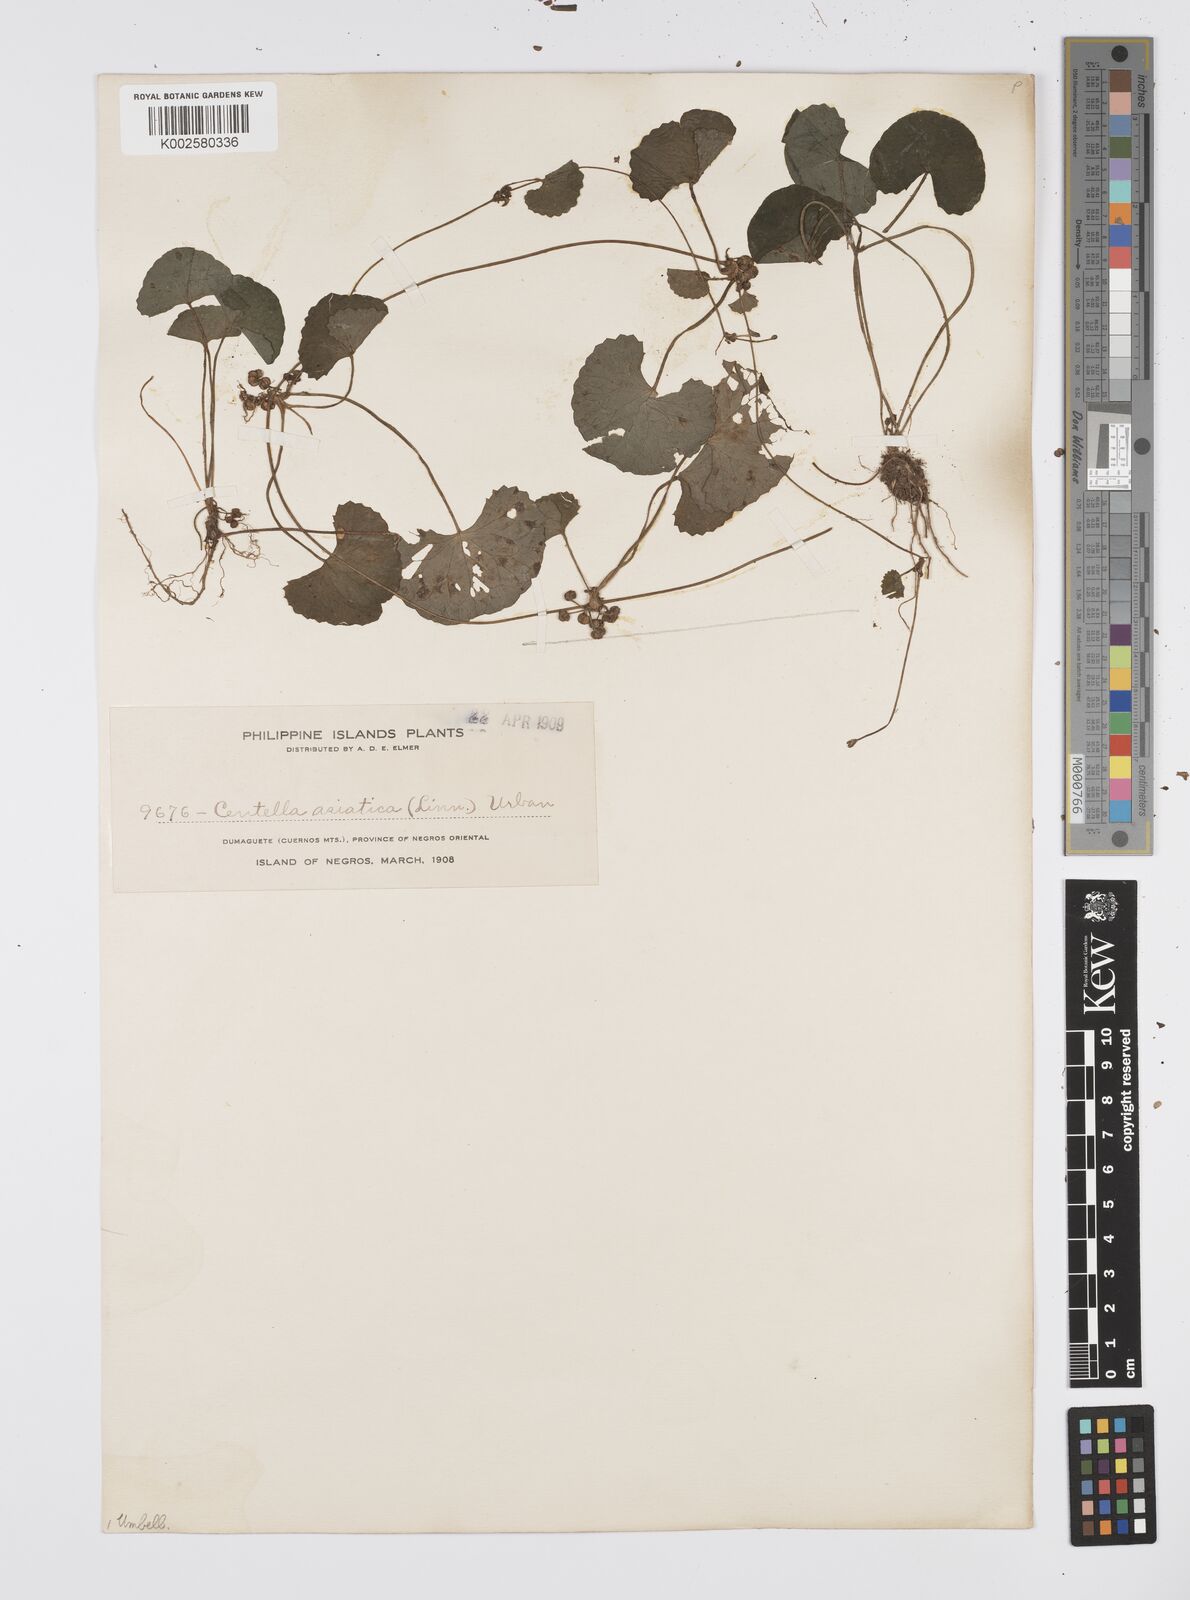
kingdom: Plantae
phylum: Tracheophyta
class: Magnoliopsida
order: Apiales
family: Apiaceae
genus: Centella
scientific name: Centella asiatica
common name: Spadeleaf
